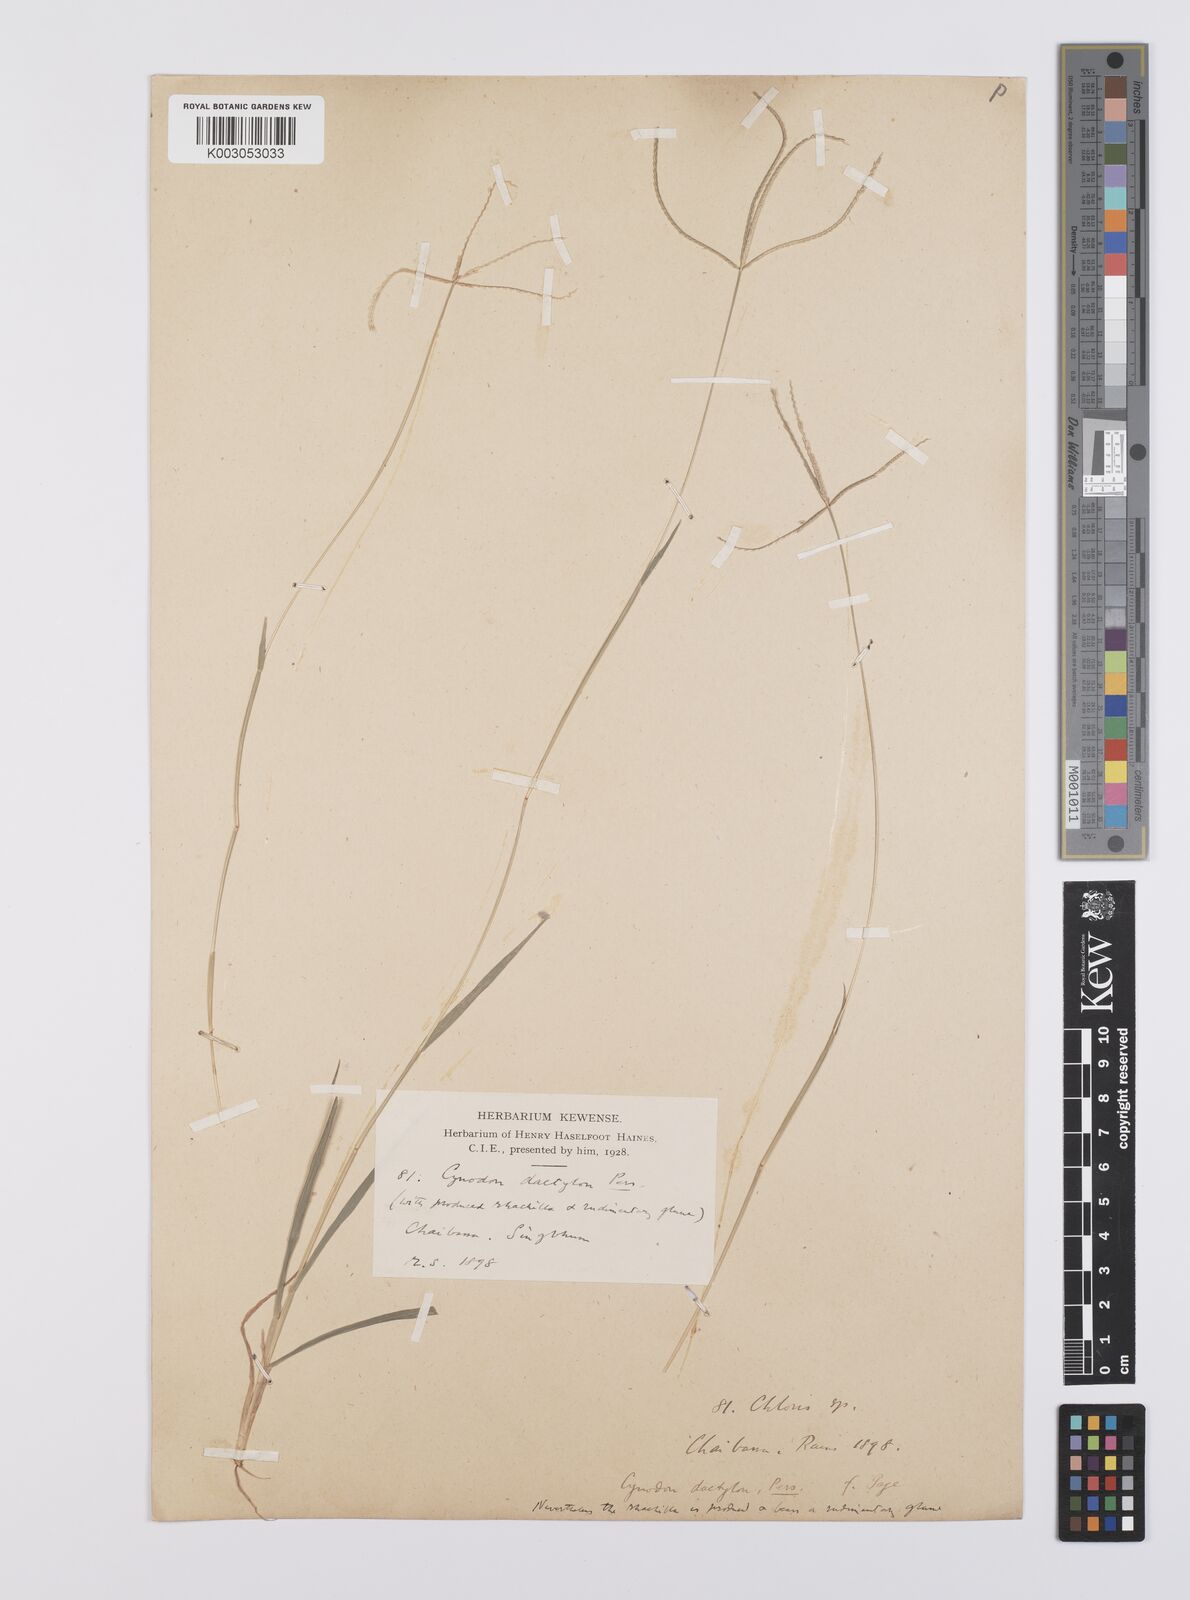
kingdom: Plantae
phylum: Tracheophyta
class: Liliopsida
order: Poales
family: Poaceae
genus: Cynodon
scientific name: Cynodon radiatus
